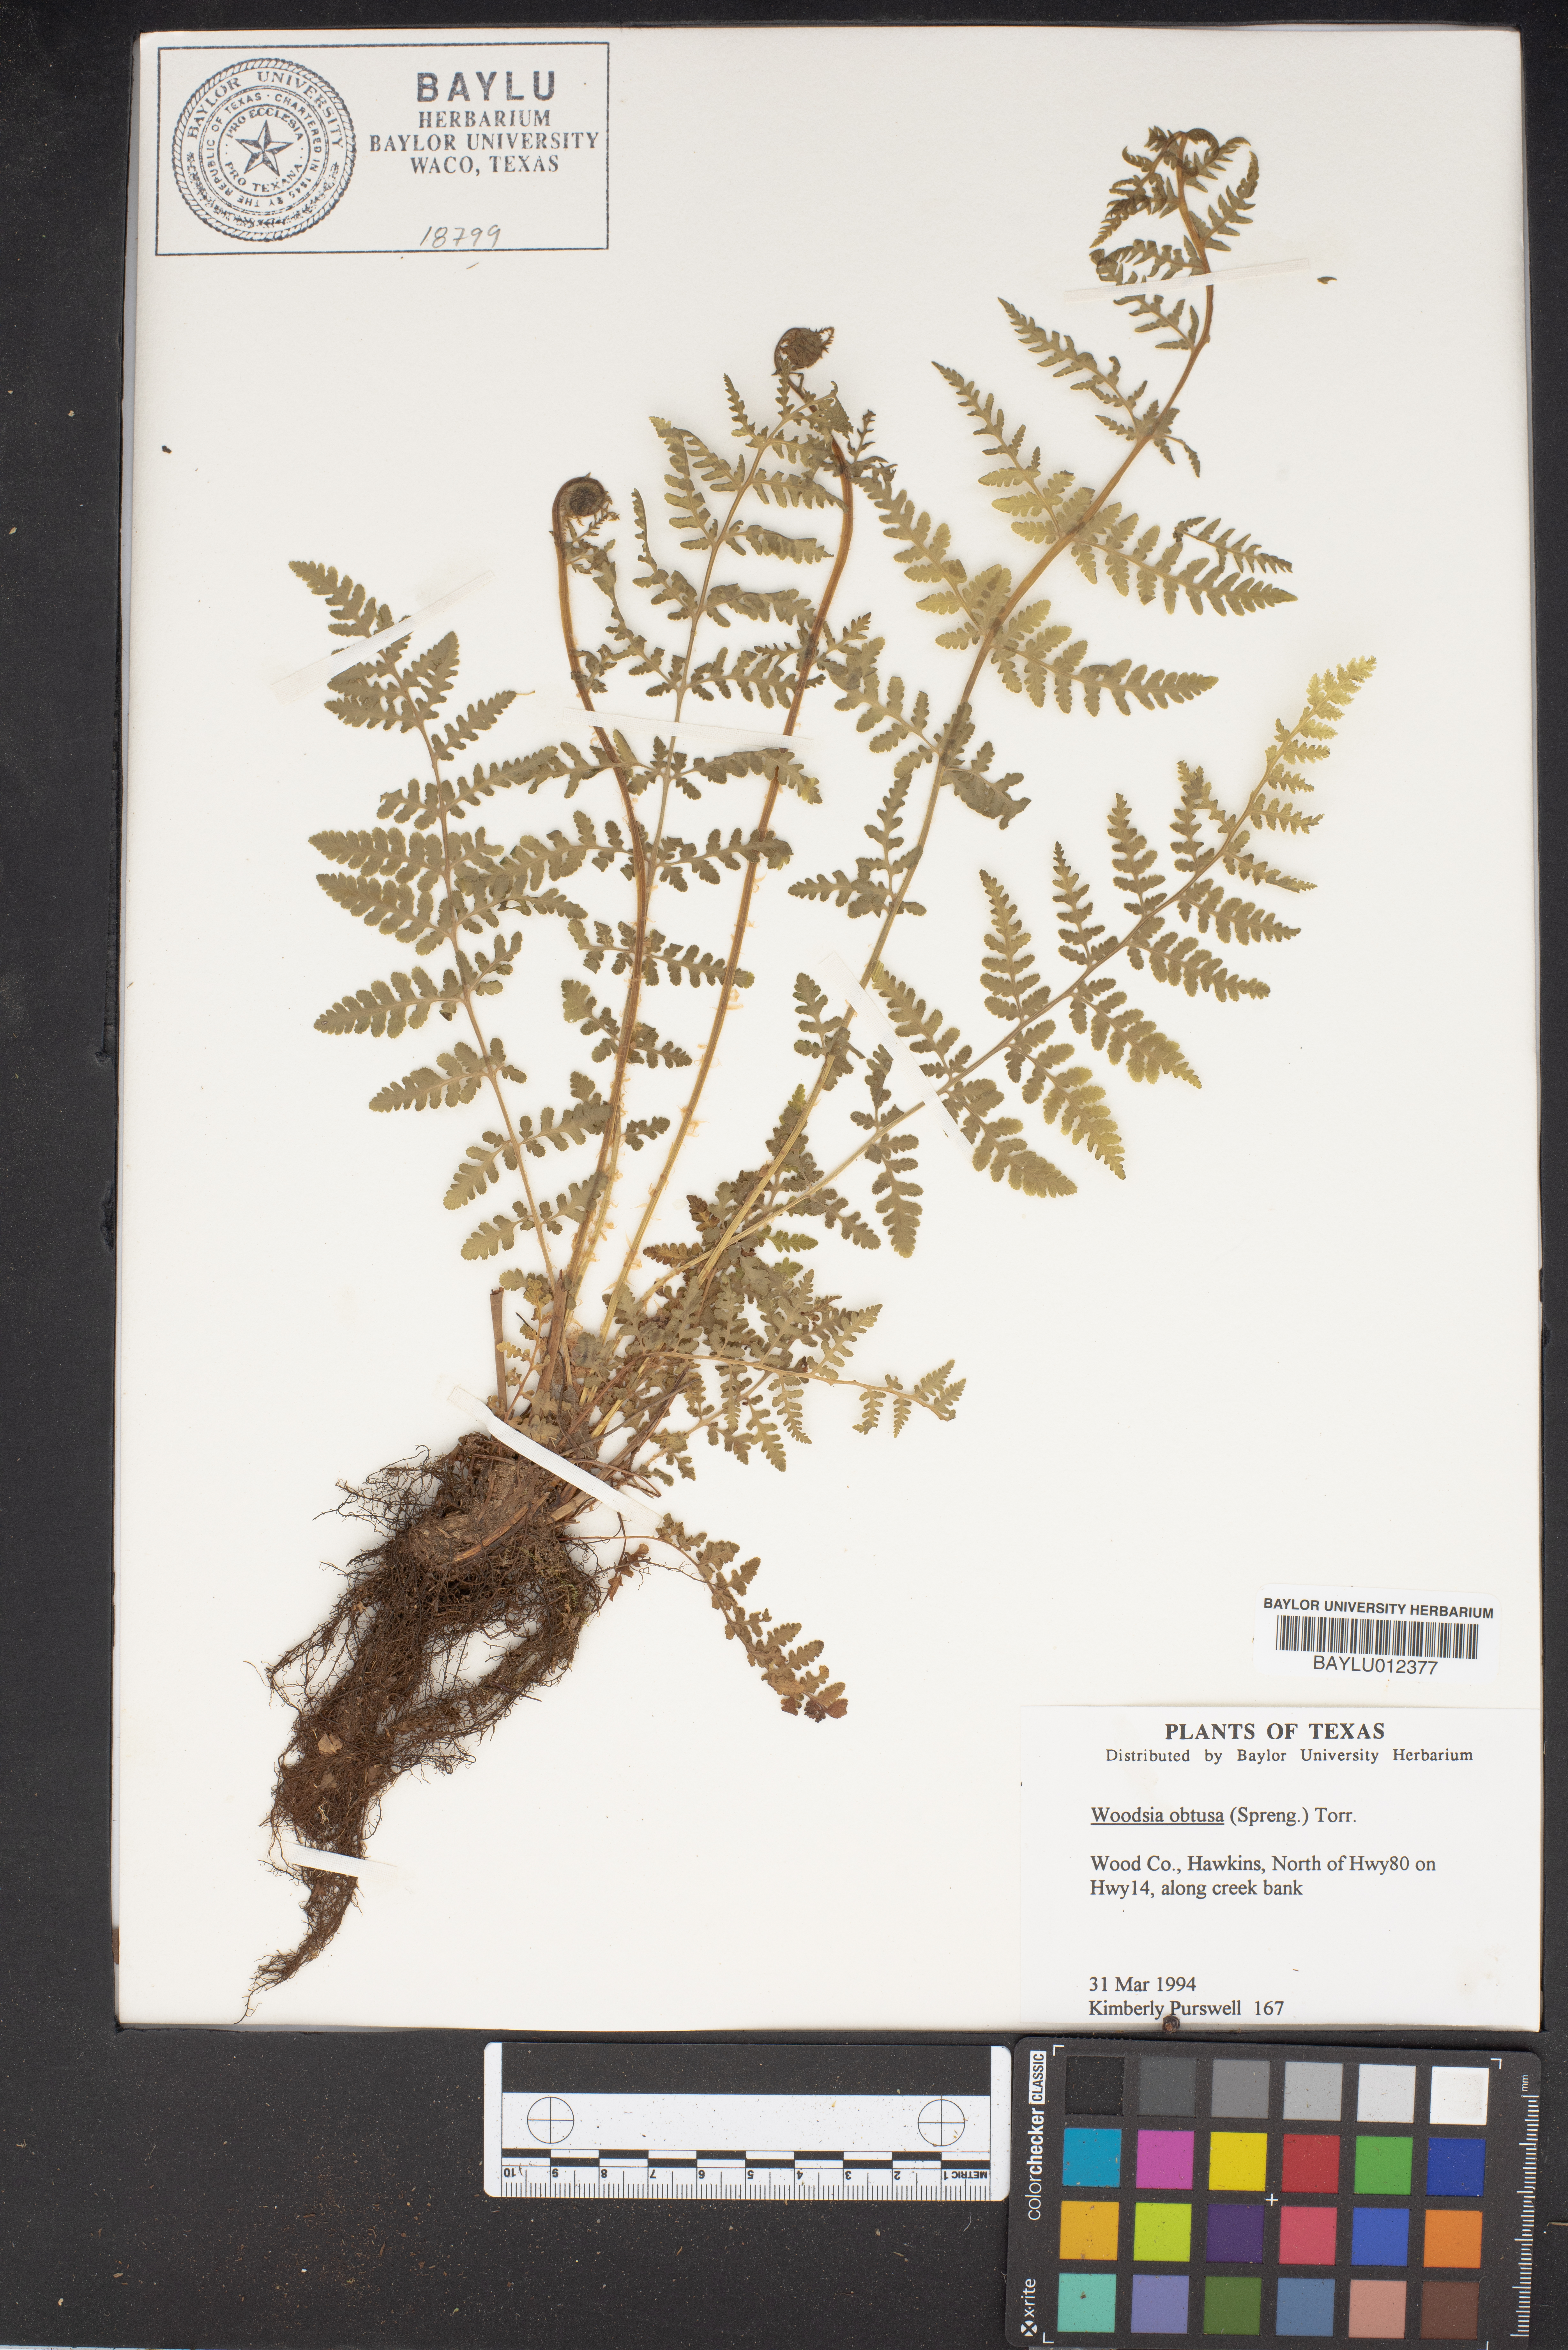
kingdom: Plantae
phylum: Tracheophyta
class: Polypodiopsida
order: Polypodiales
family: Woodsiaceae
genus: Physematium
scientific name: Physematium obtusum
